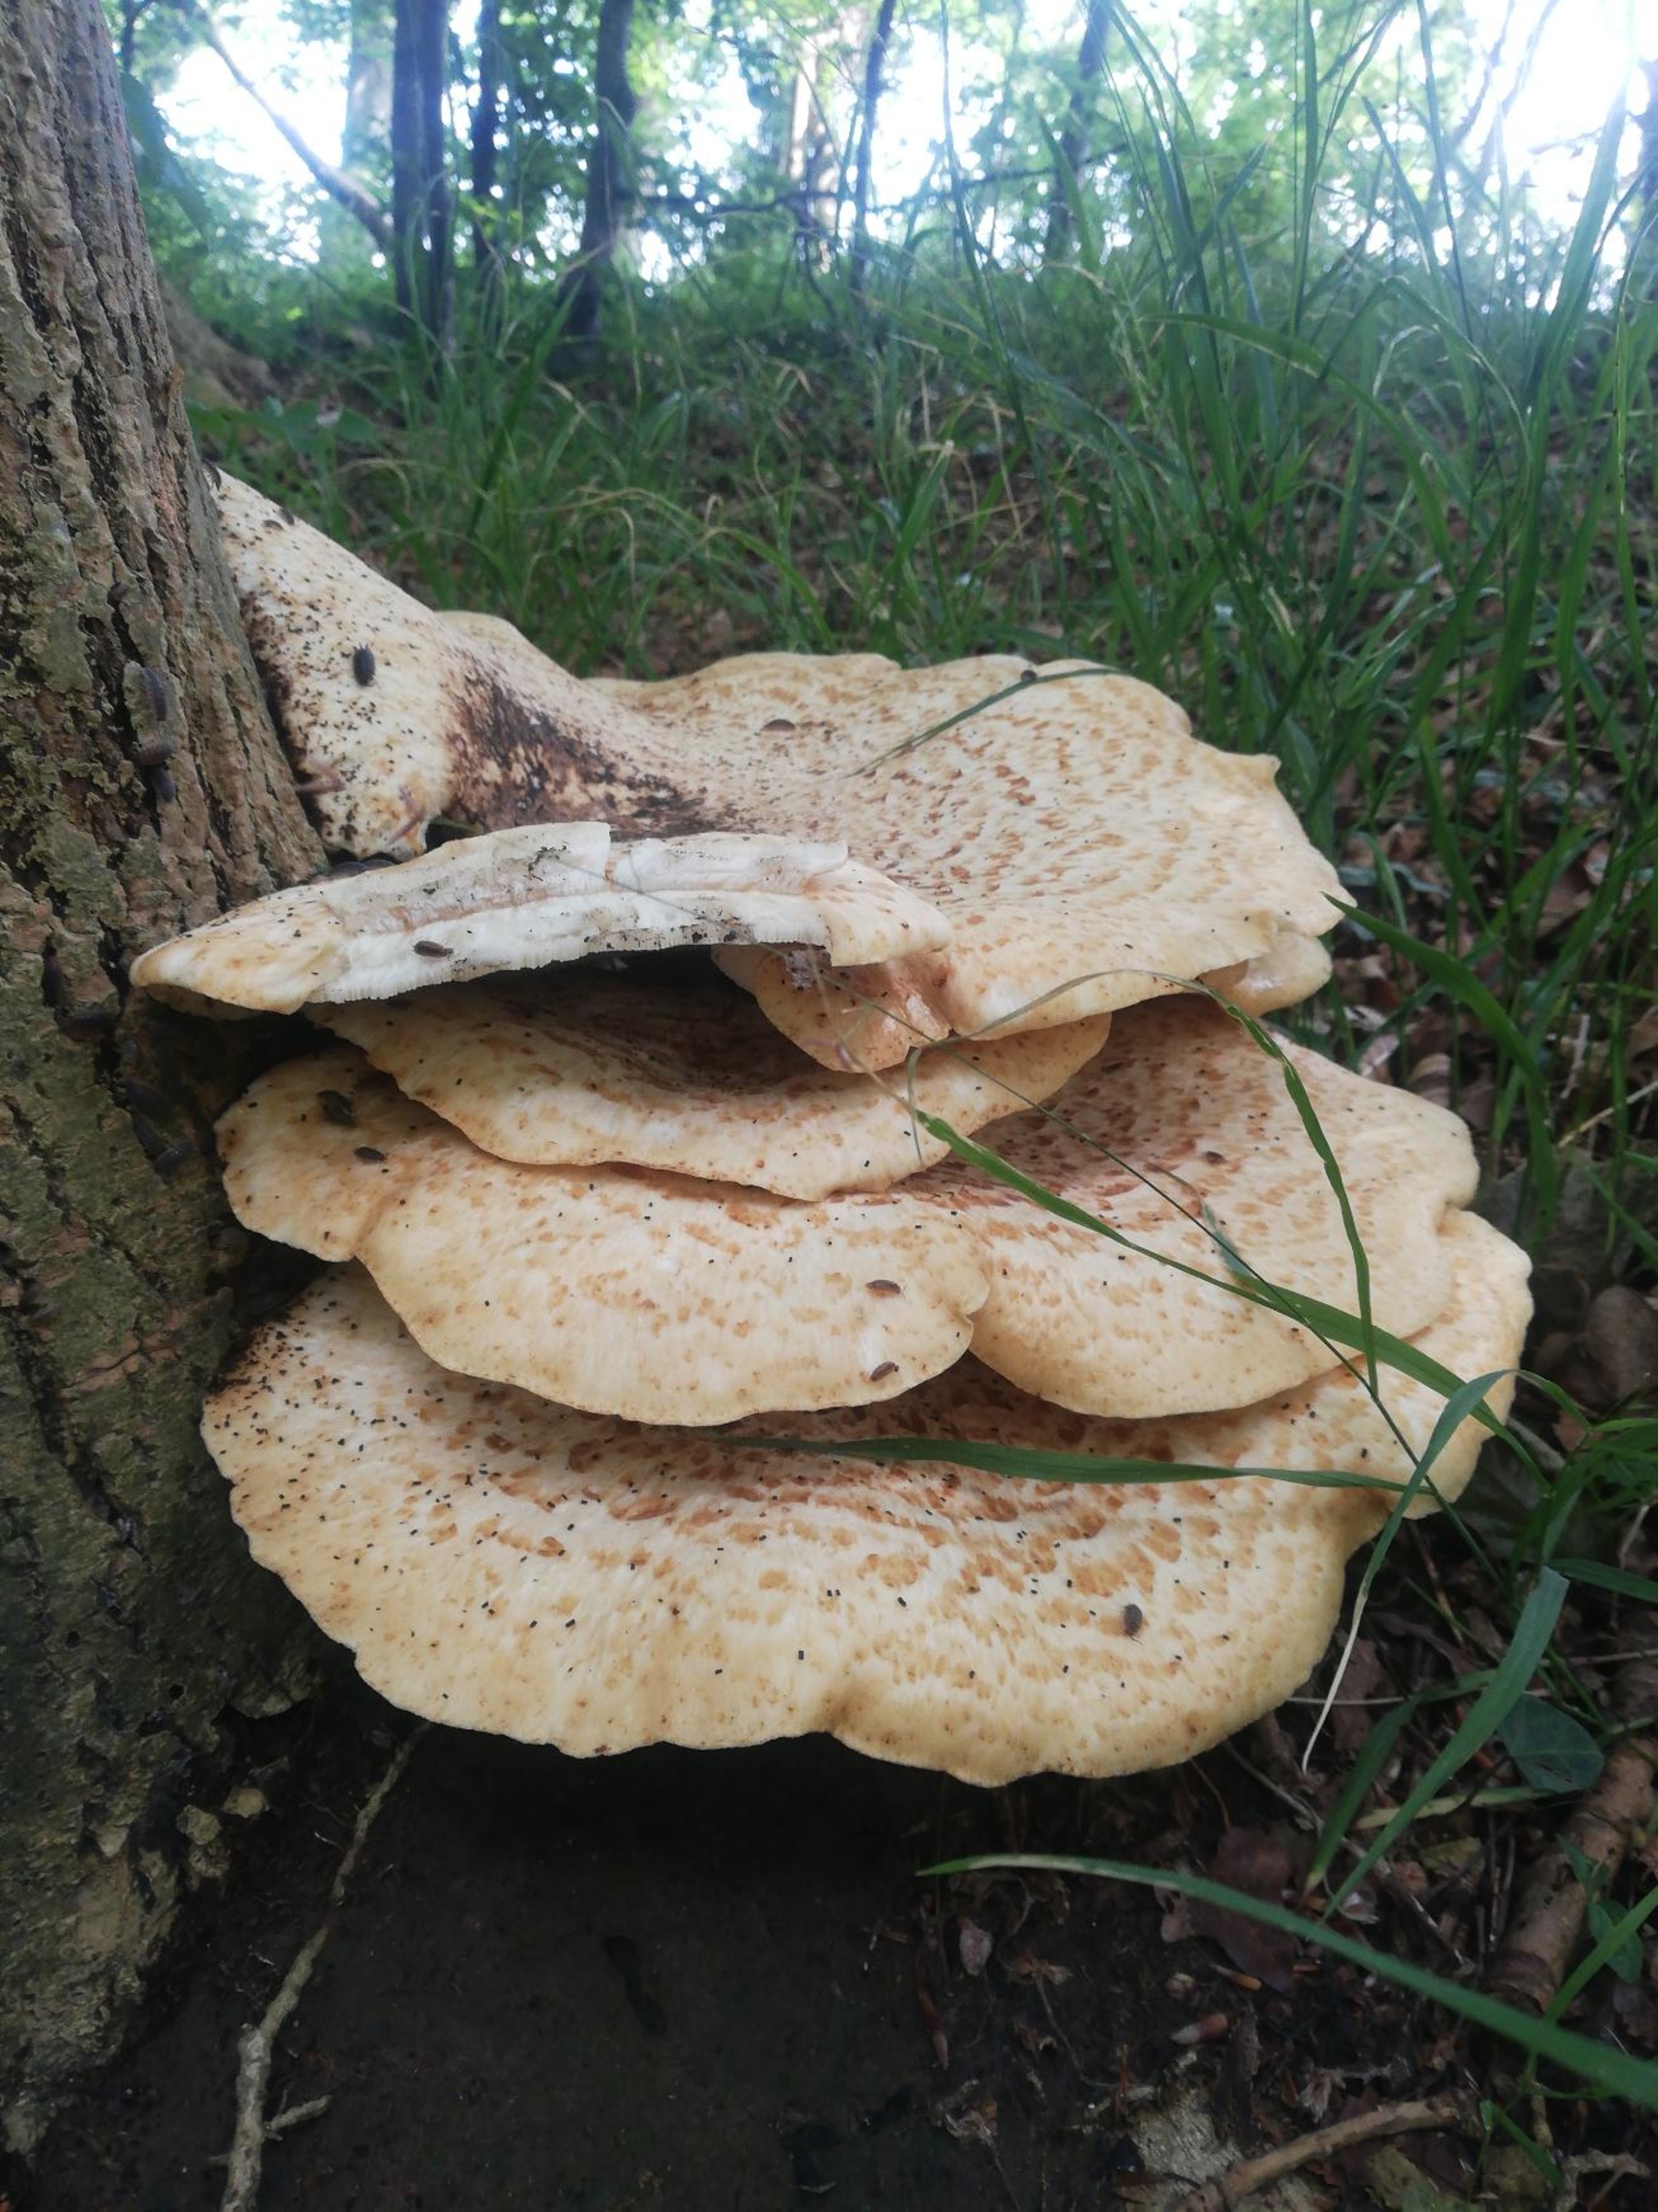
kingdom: Fungi
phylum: Basidiomycota
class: Agaricomycetes
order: Polyporales
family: Polyporaceae
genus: Cerioporus
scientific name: Cerioporus squamosus
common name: Skællet stilkporesvamp
